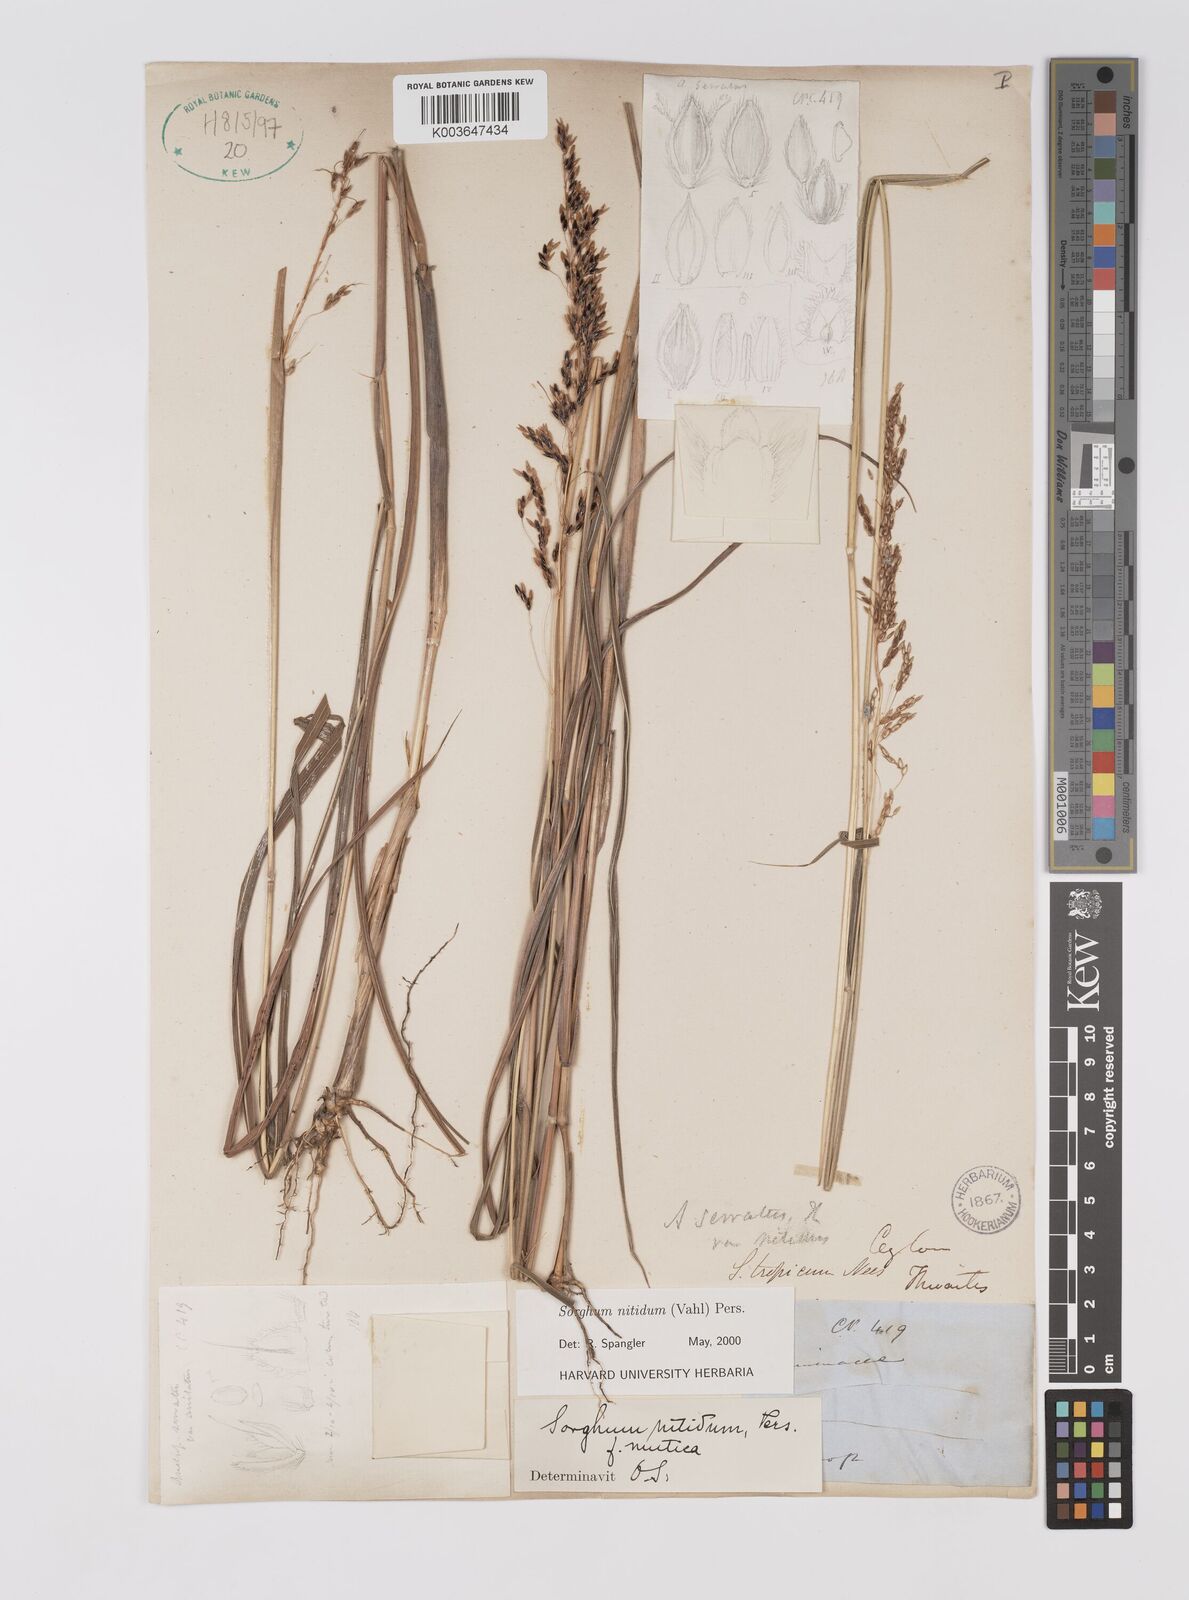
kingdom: Plantae
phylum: Tracheophyta
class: Liliopsida
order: Poales
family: Poaceae
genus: Sorghum
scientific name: Sorghum nitidum
